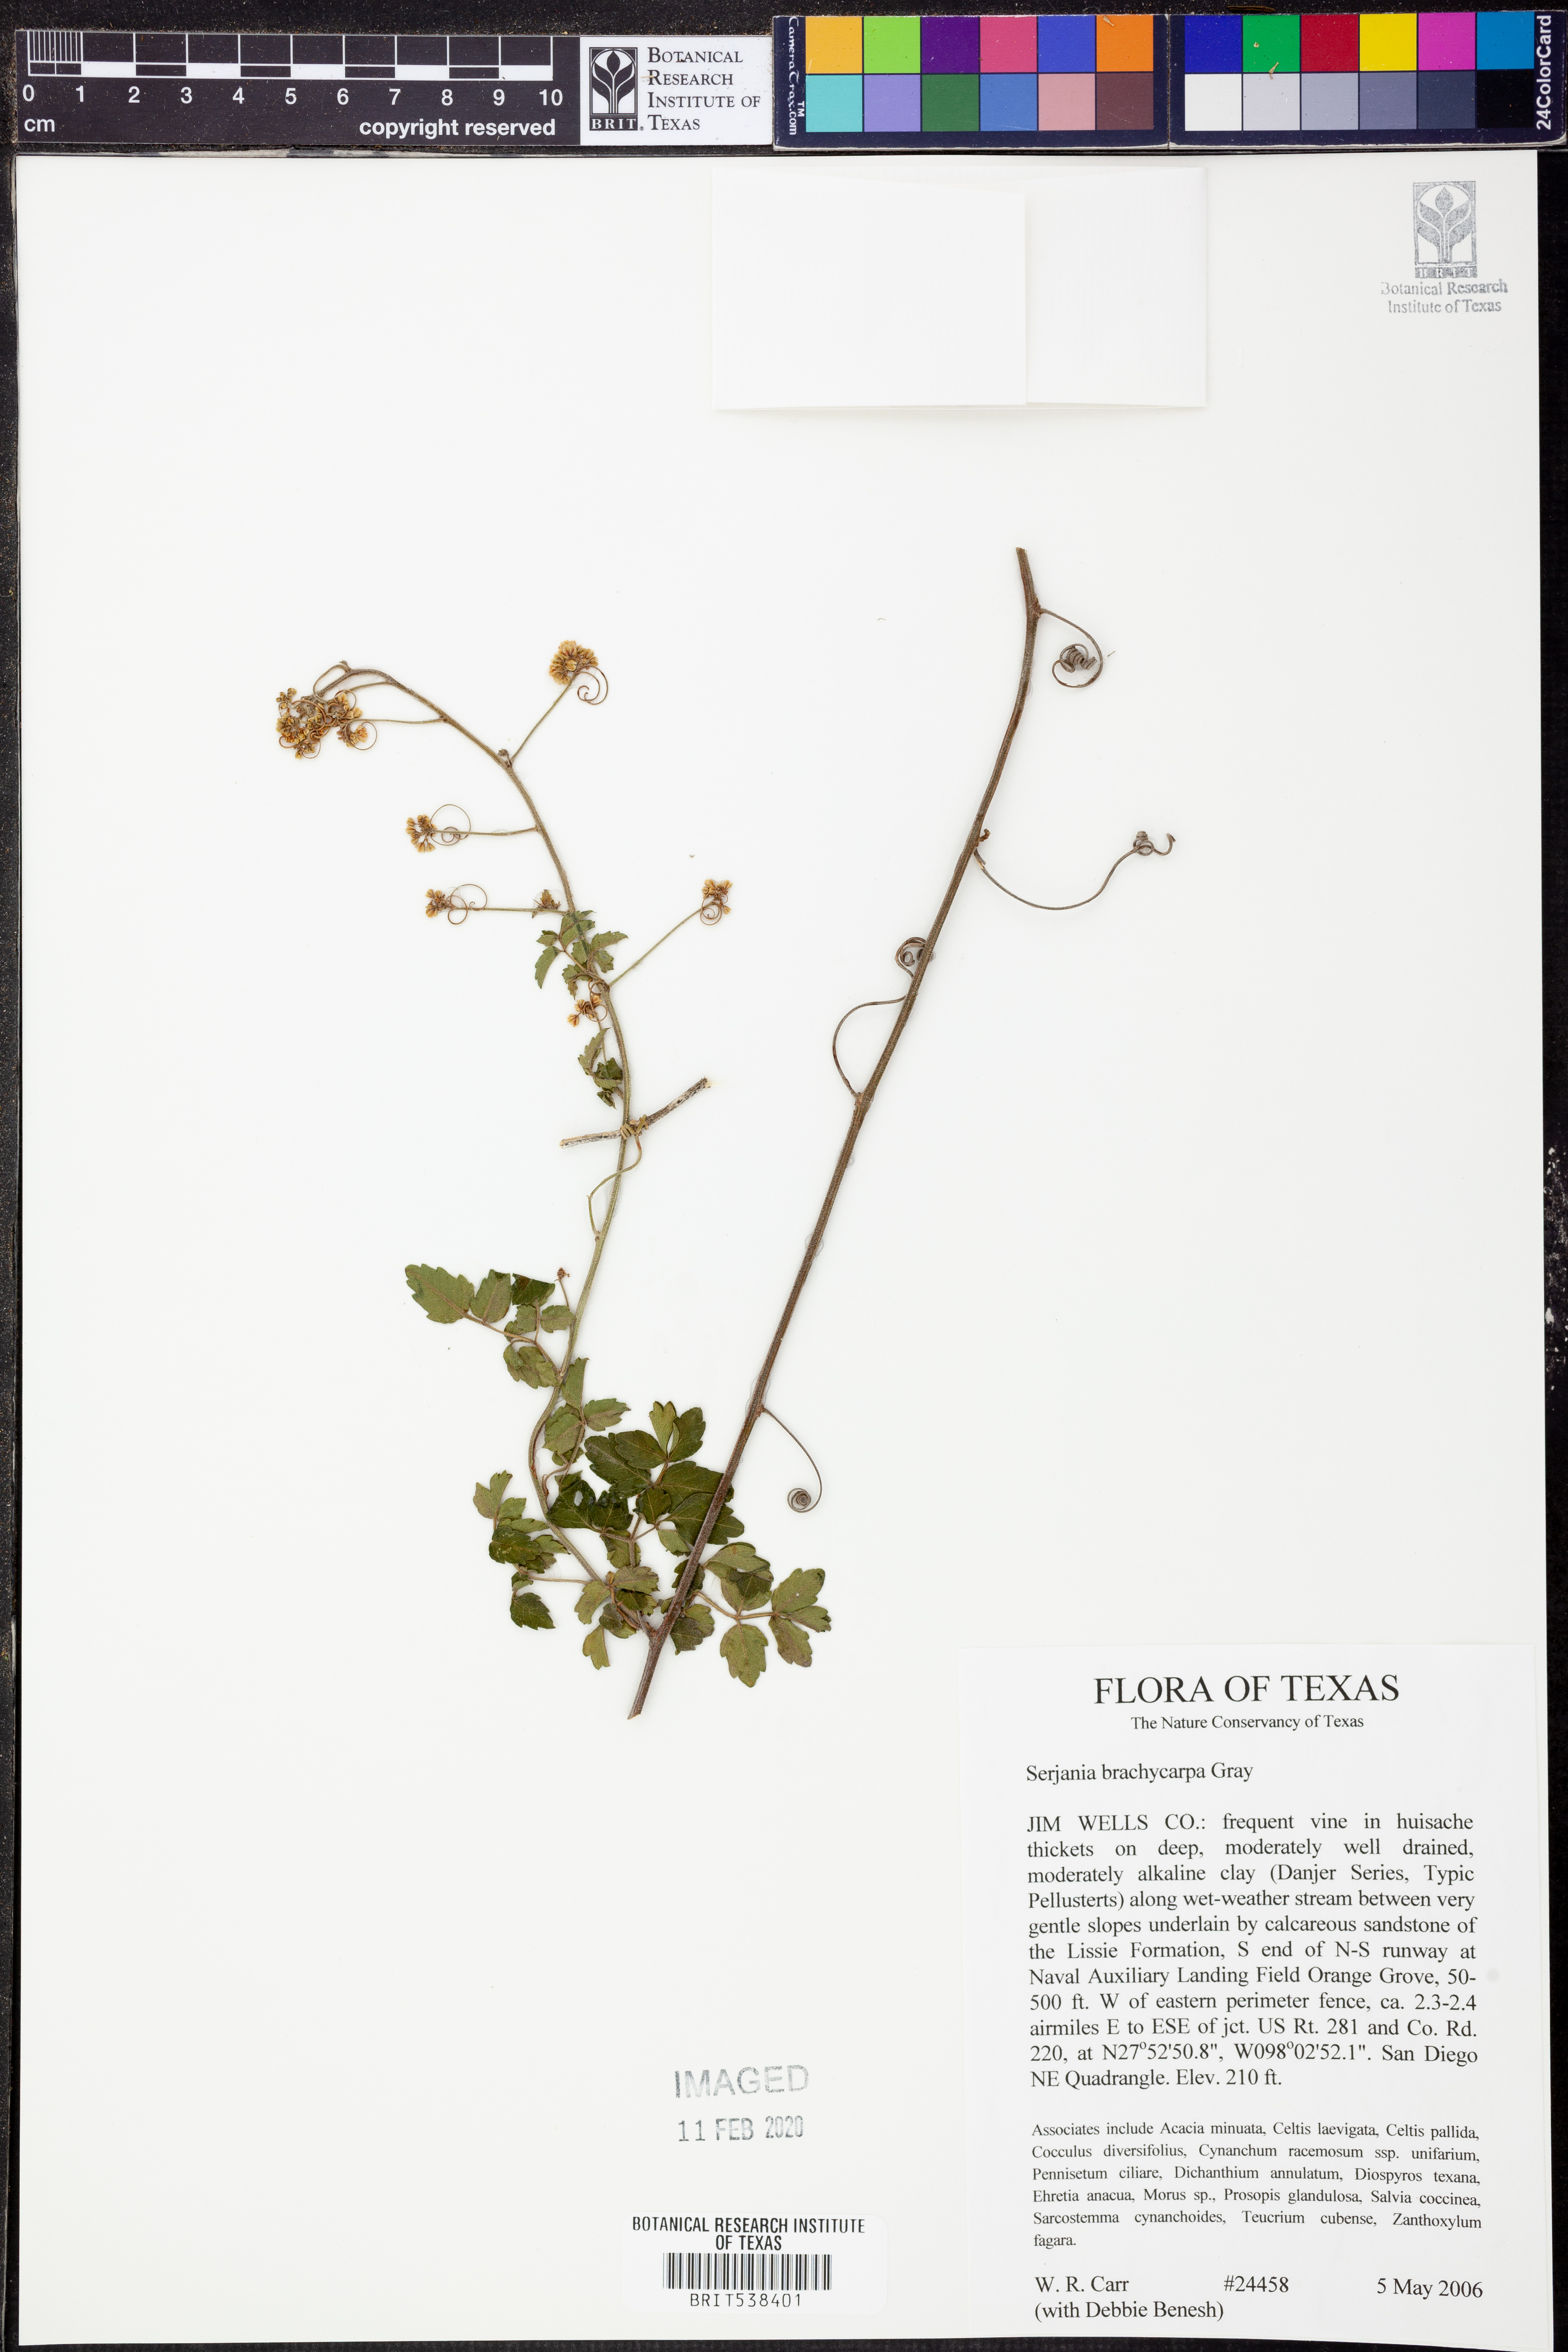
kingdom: Plantae
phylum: Tracheophyta
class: Magnoliopsida
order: Sapindales
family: Sapindaceae
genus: Serjania
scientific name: Serjania brachycarpa
